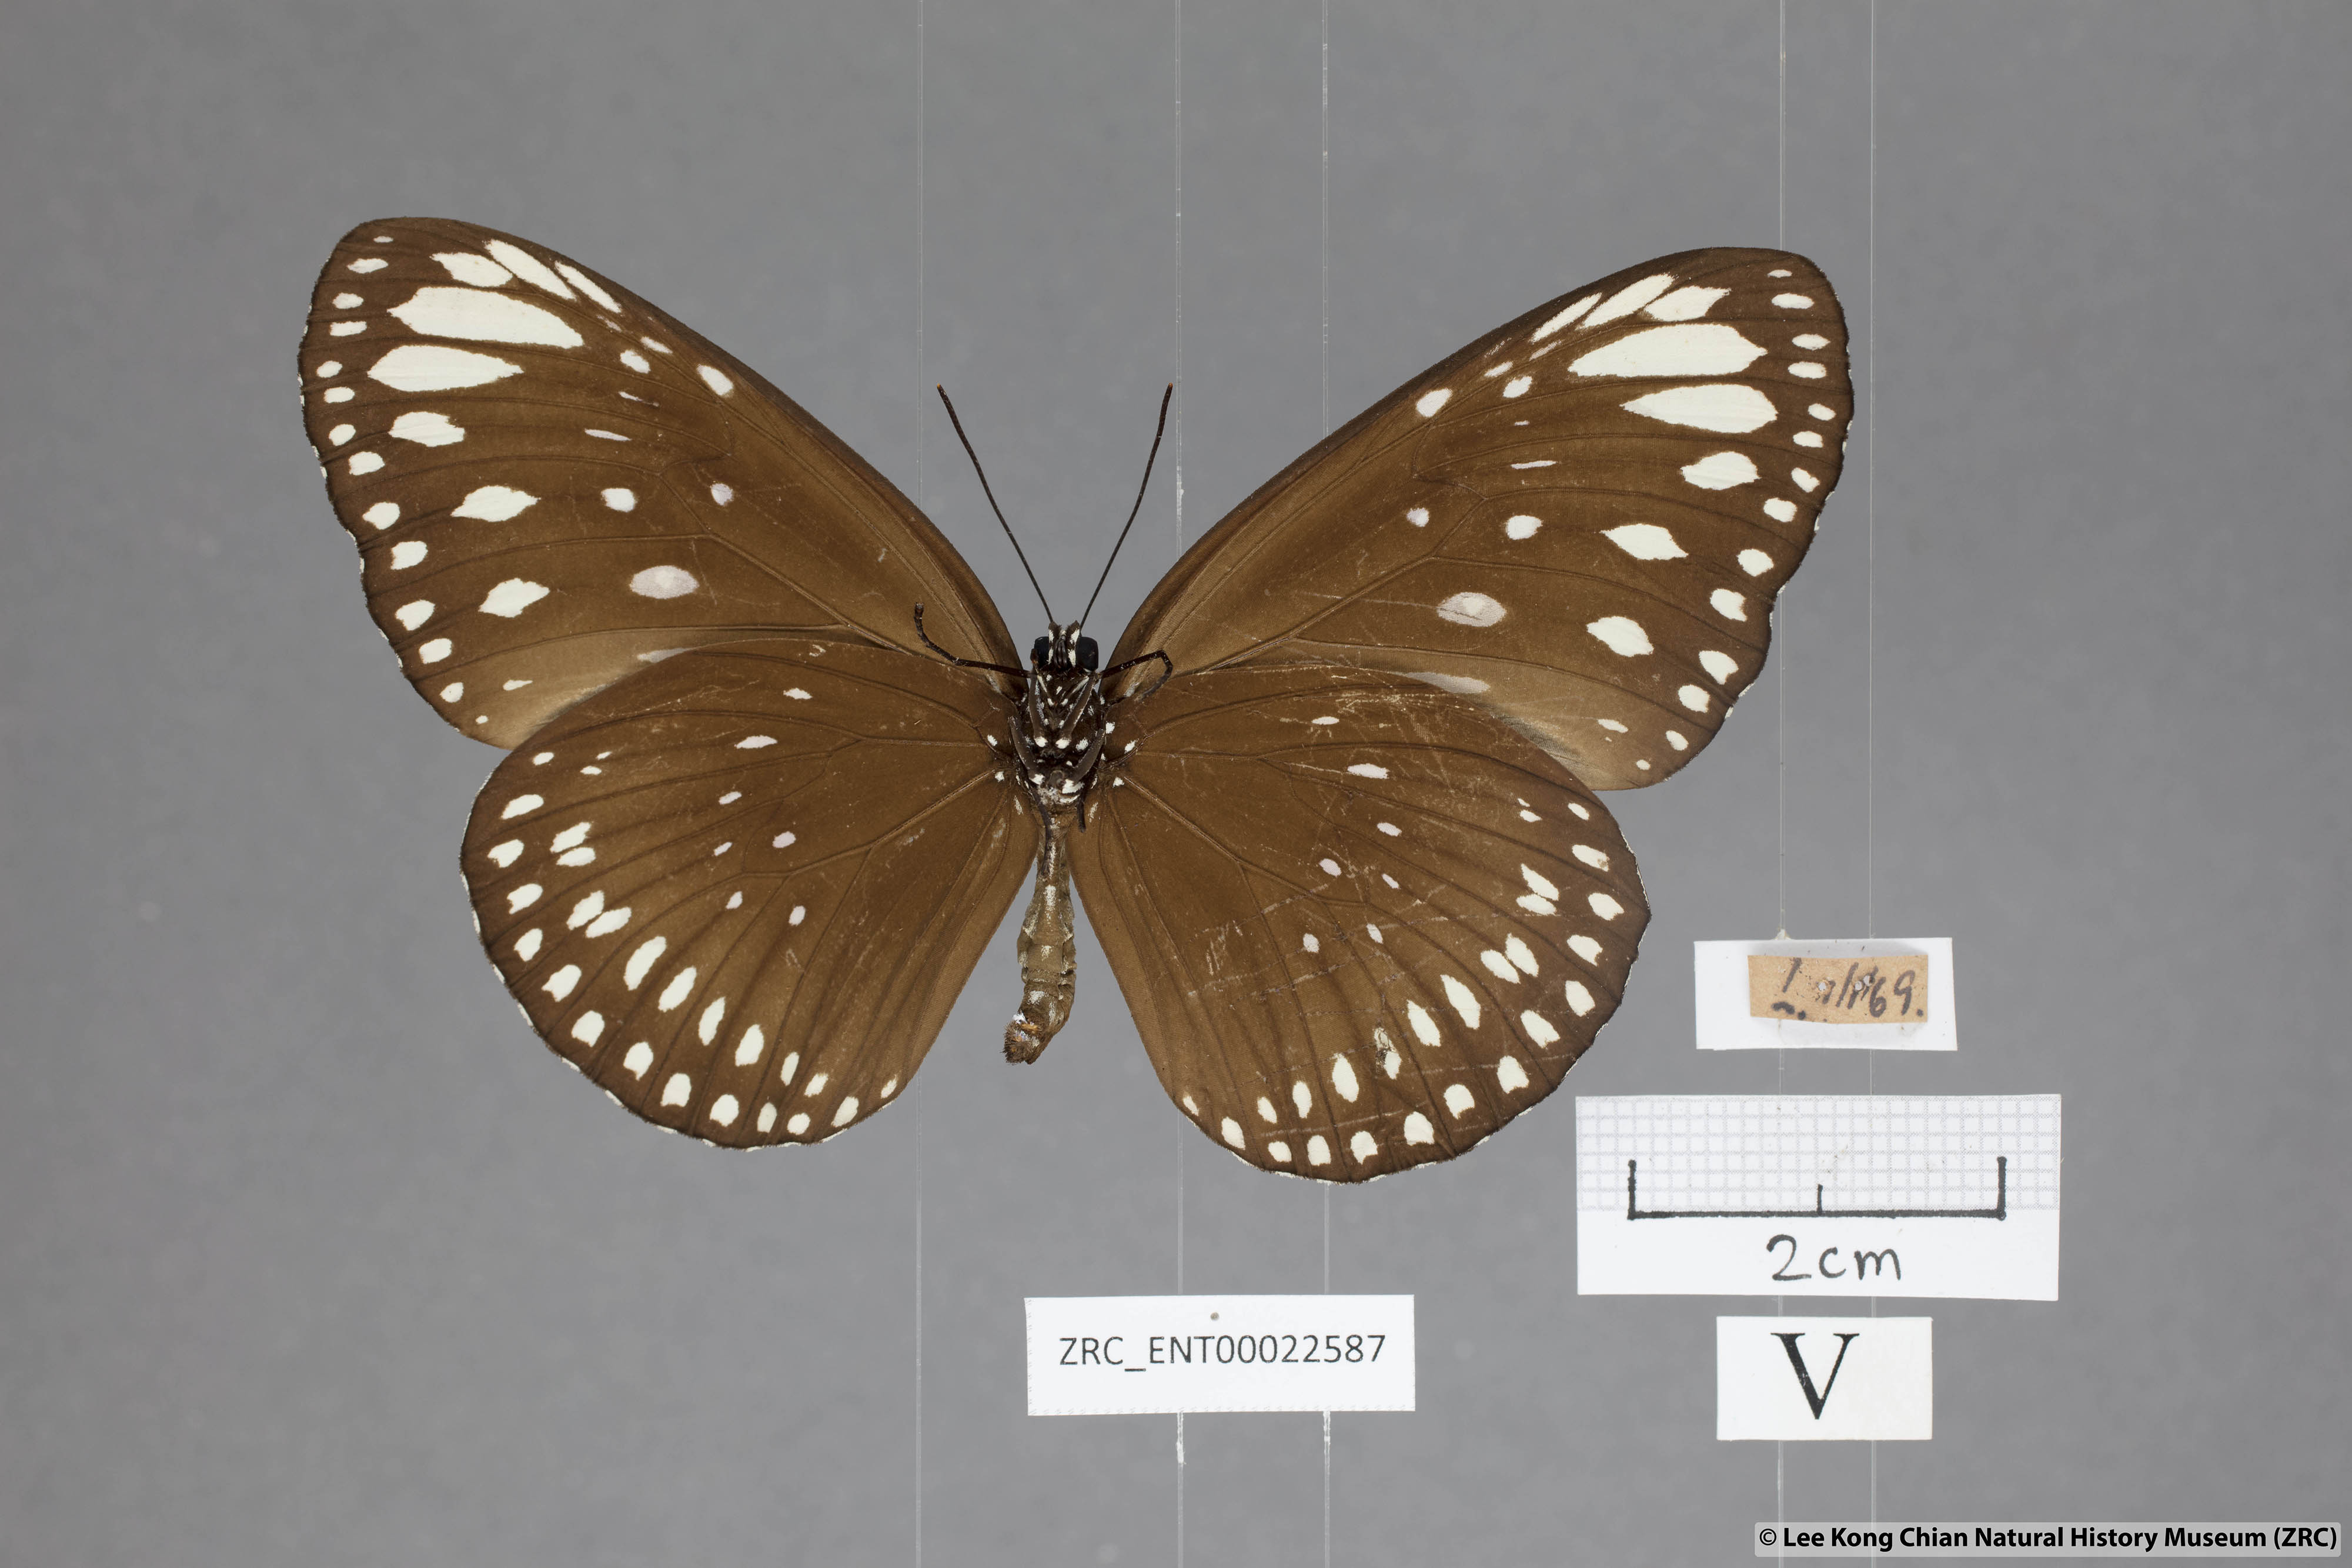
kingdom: Animalia
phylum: Arthropoda
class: Insecta
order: Lepidoptera
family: Nymphalidae
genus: Euploea
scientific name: Euploea crameri
